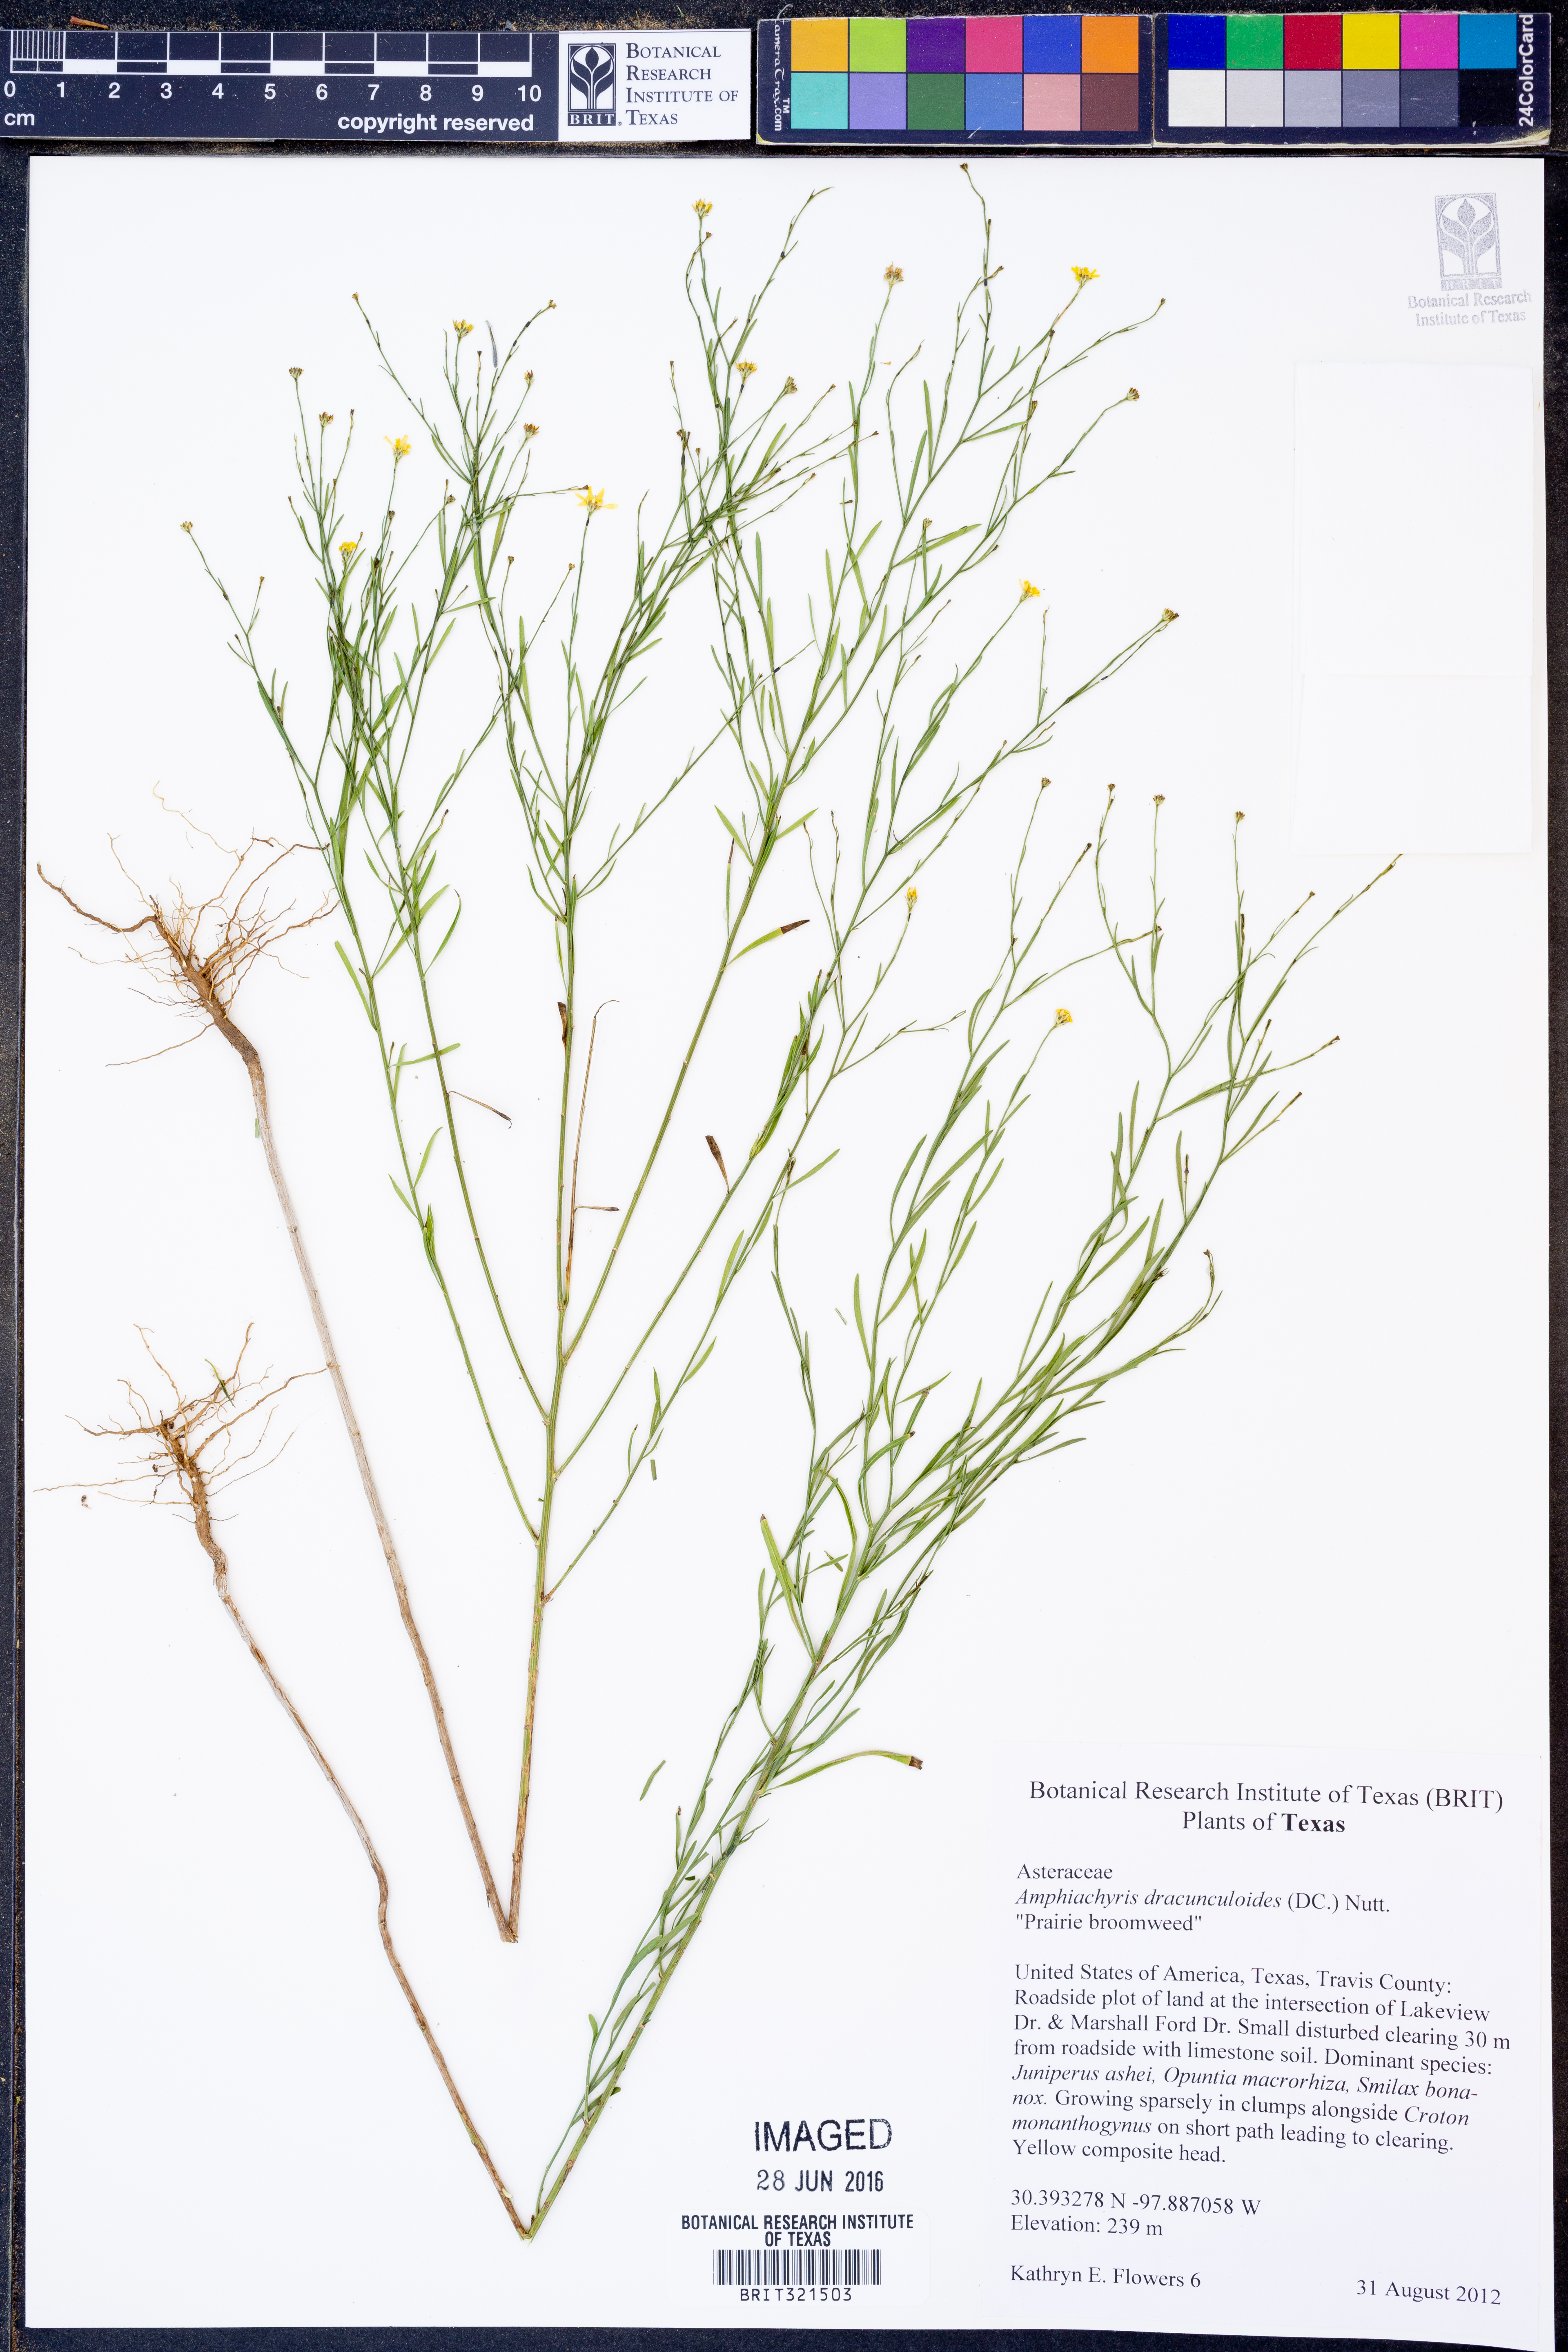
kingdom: Plantae
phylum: Tracheophyta
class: Magnoliopsida
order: Asterales
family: Asteraceae
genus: Amphiachyris
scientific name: Amphiachyris dracunculoides
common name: Broomweed
